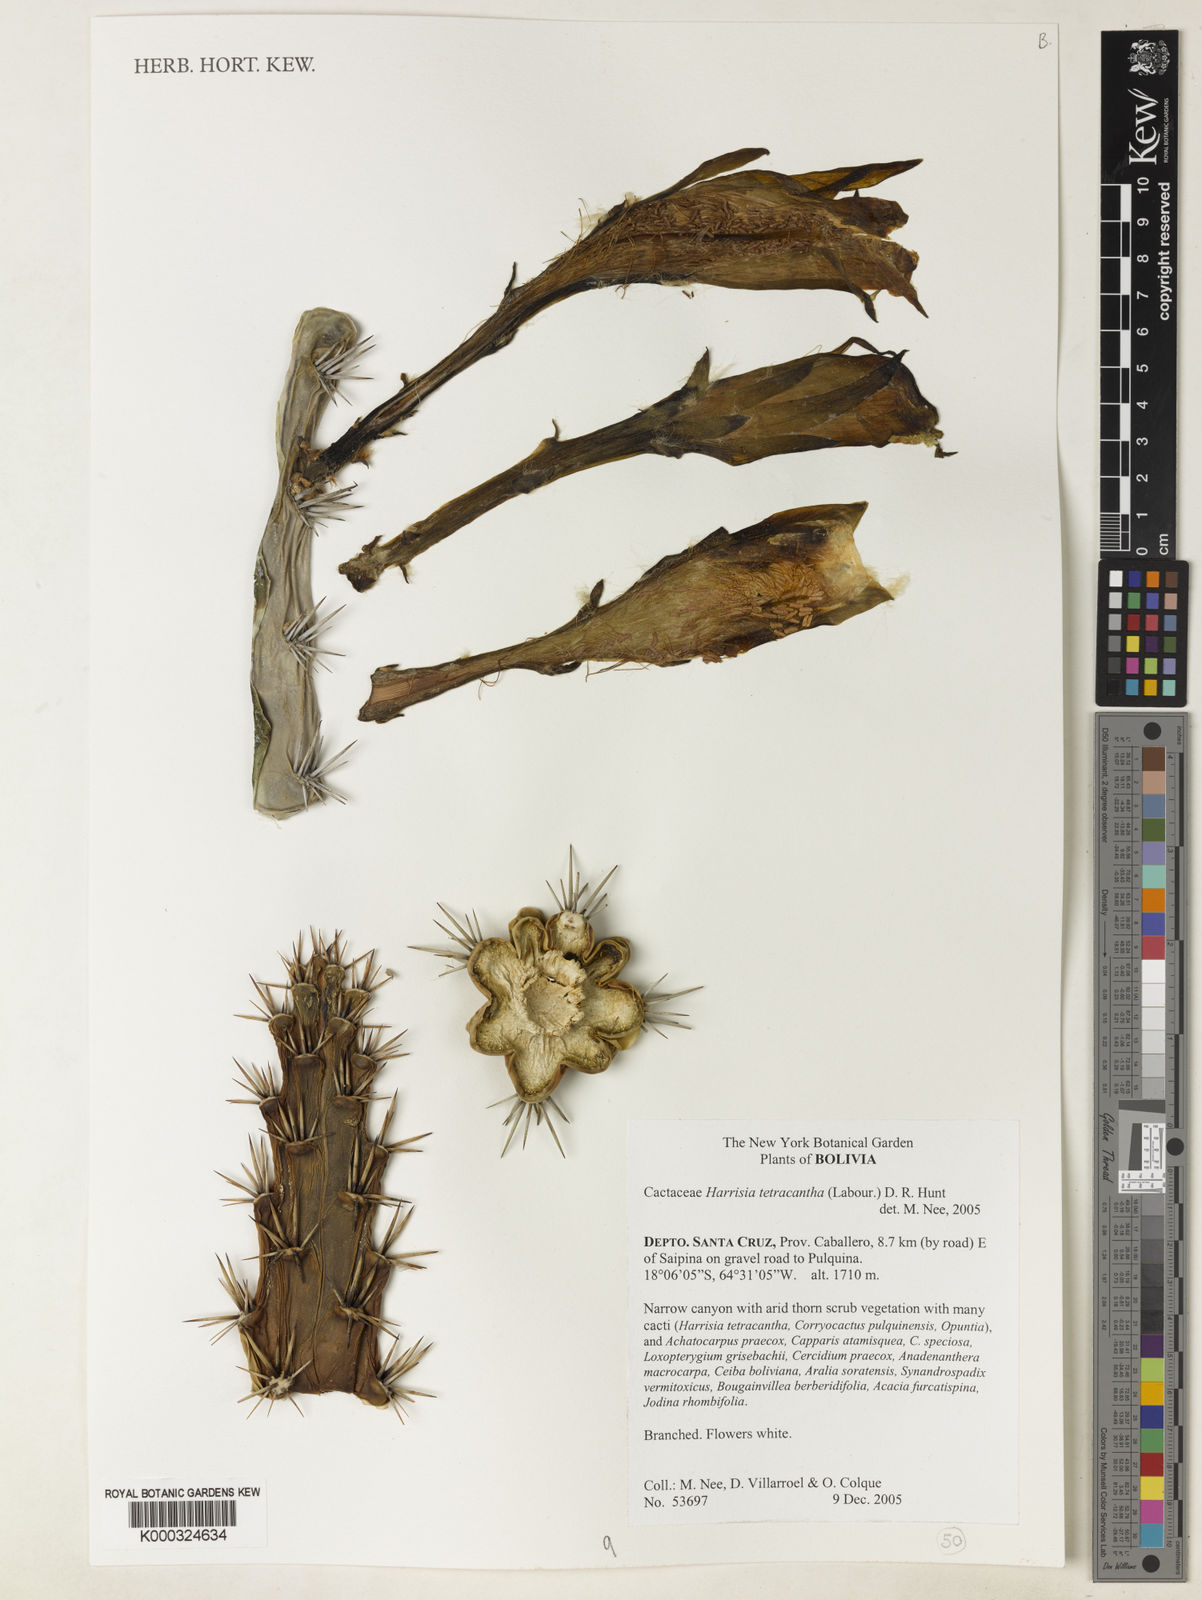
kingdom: Plantae
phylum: Tracheophyta
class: Magnoliopsida
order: Caryophyllales
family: Cactaceae
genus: Harrisia
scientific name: Harrisia tetracantha
